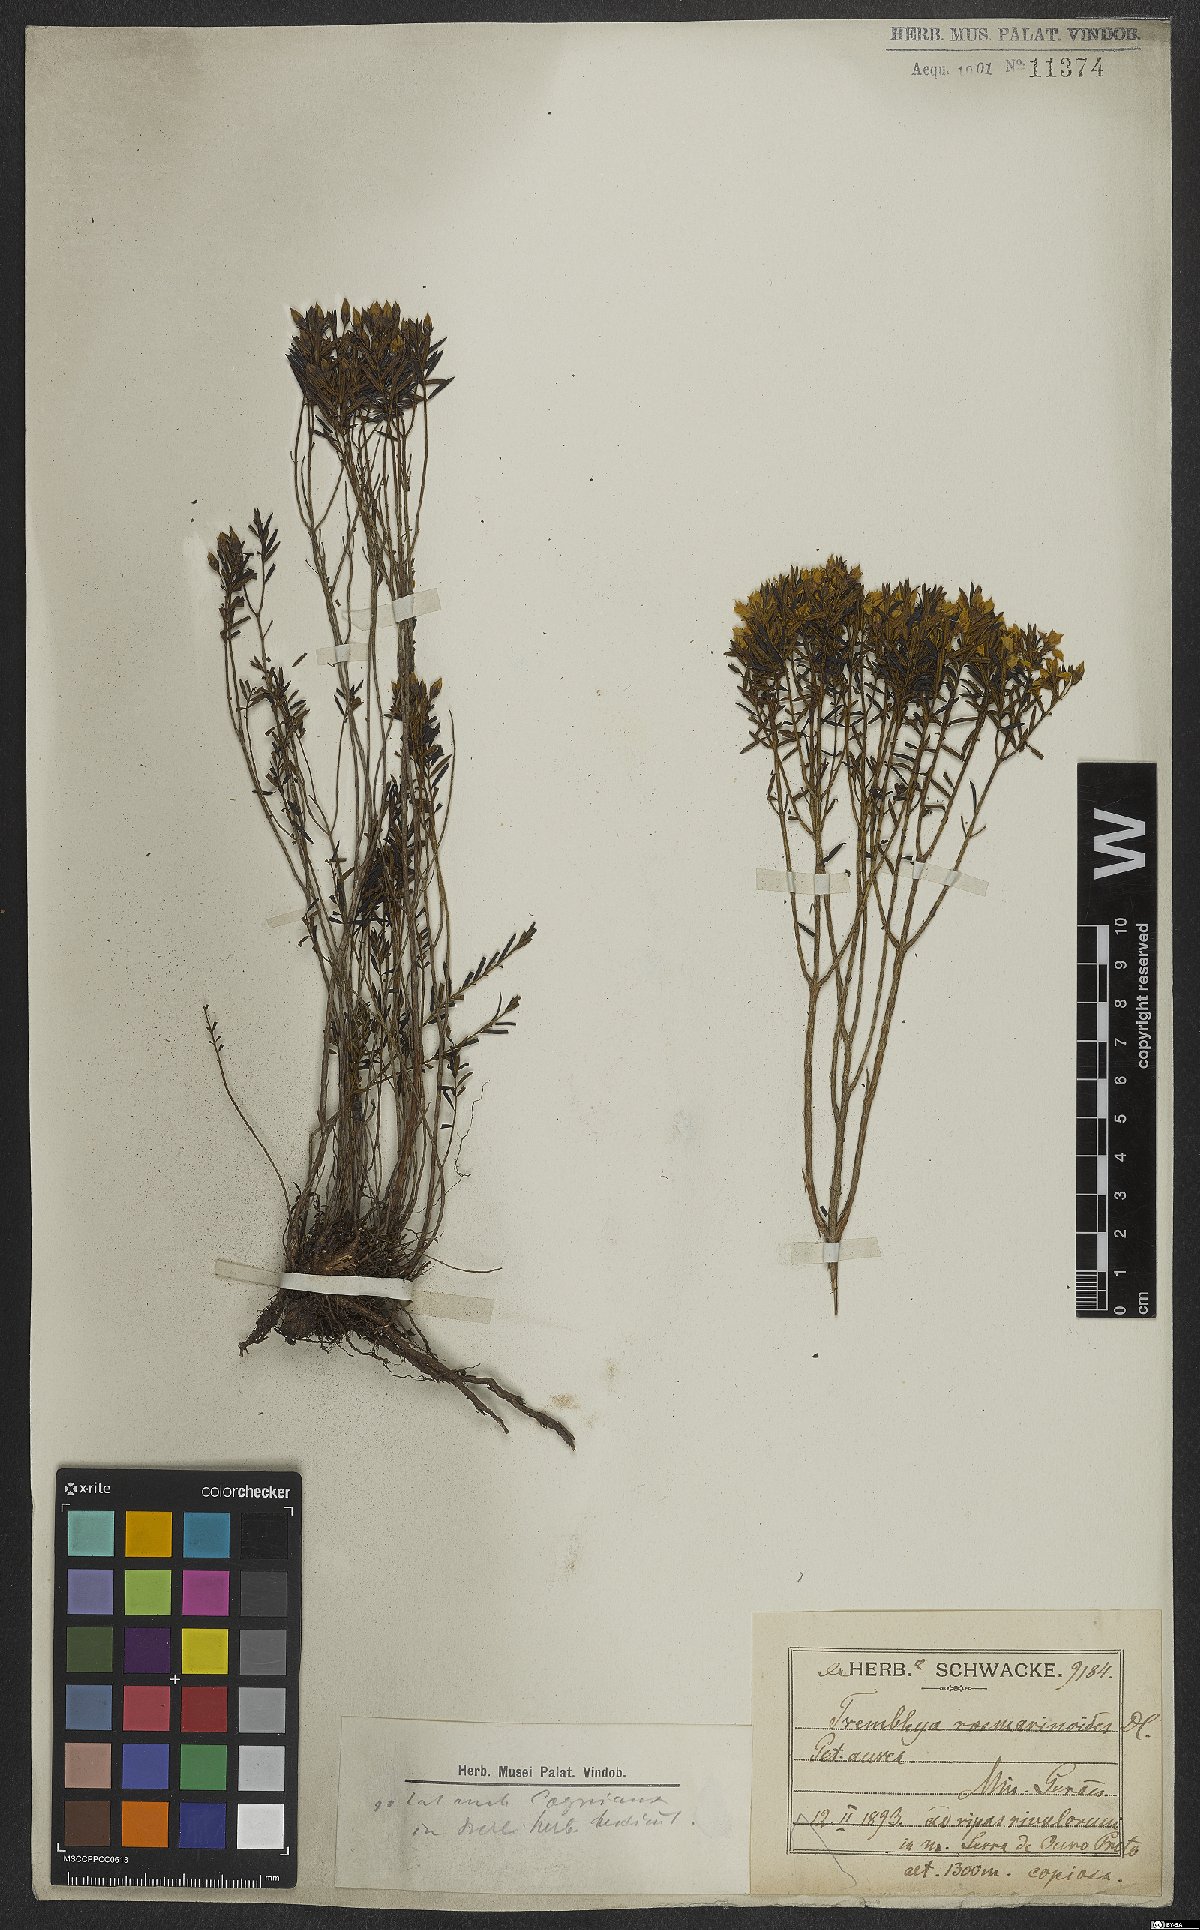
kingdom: Plantae
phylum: Tracheophyta
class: Magnoliopsida
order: Myrtales
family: Melastomataceae
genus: Microlicia
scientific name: Microlicia rosmarinoides
